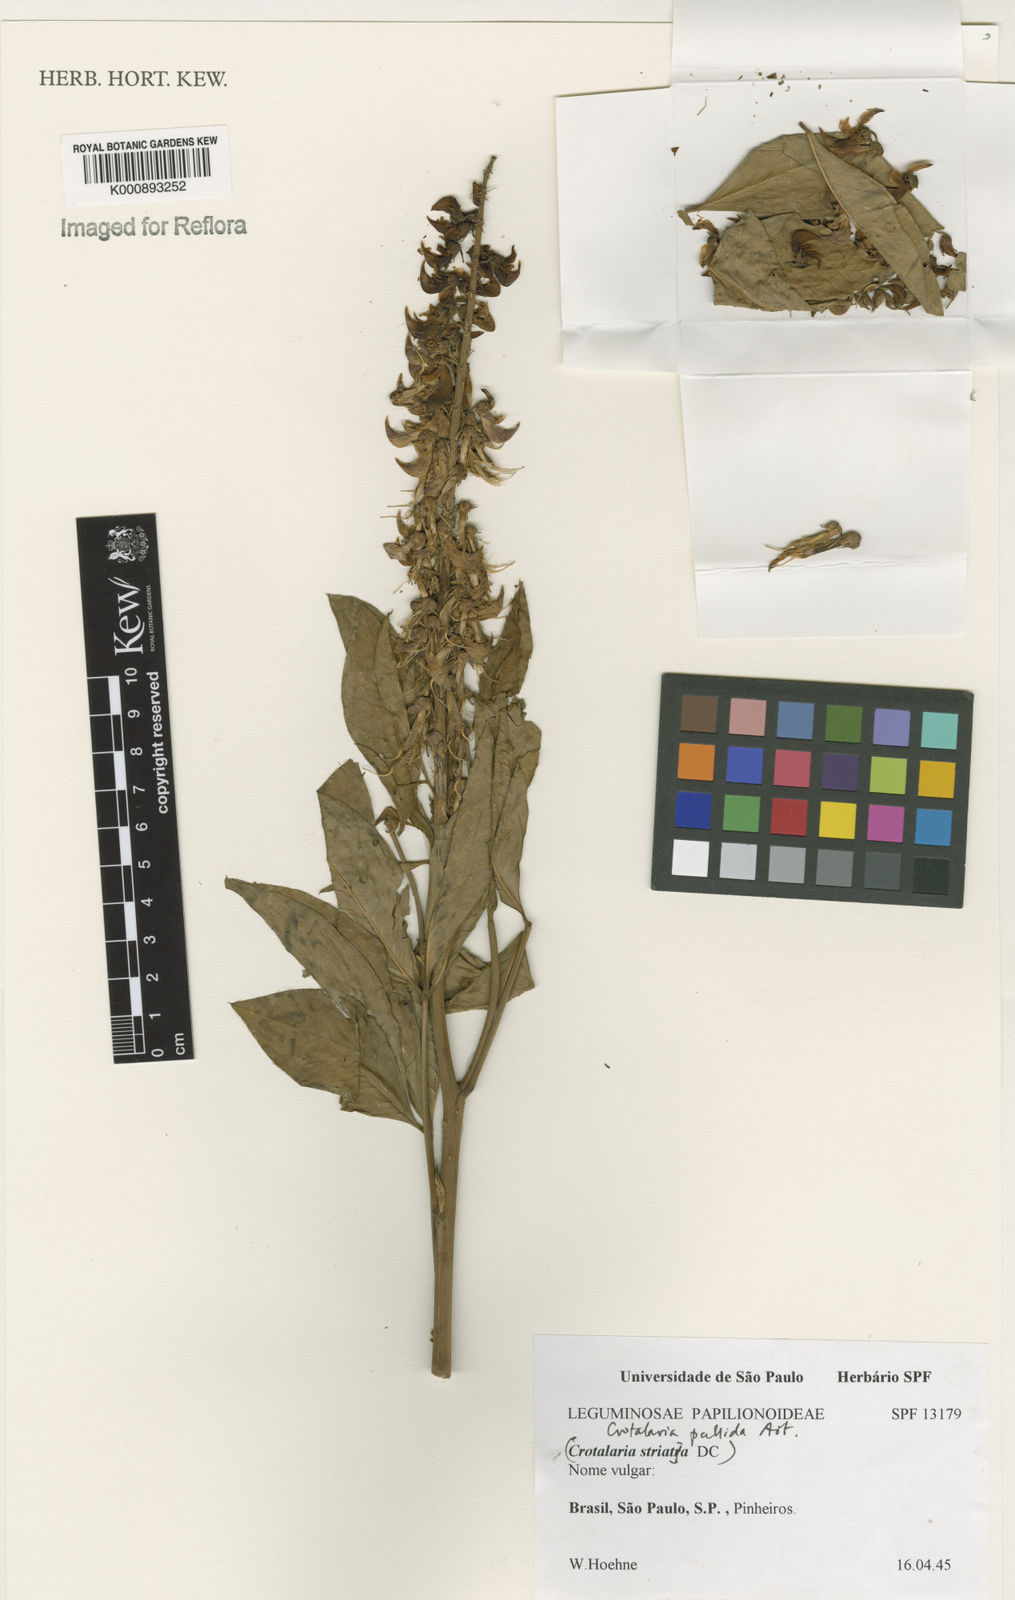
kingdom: Plantae
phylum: Tracheophyta
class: Magnoliopsida
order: Fabales
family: Fabaceae
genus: Crotalaria
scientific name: Crotalaria pallida
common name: Smooth rattlebox
